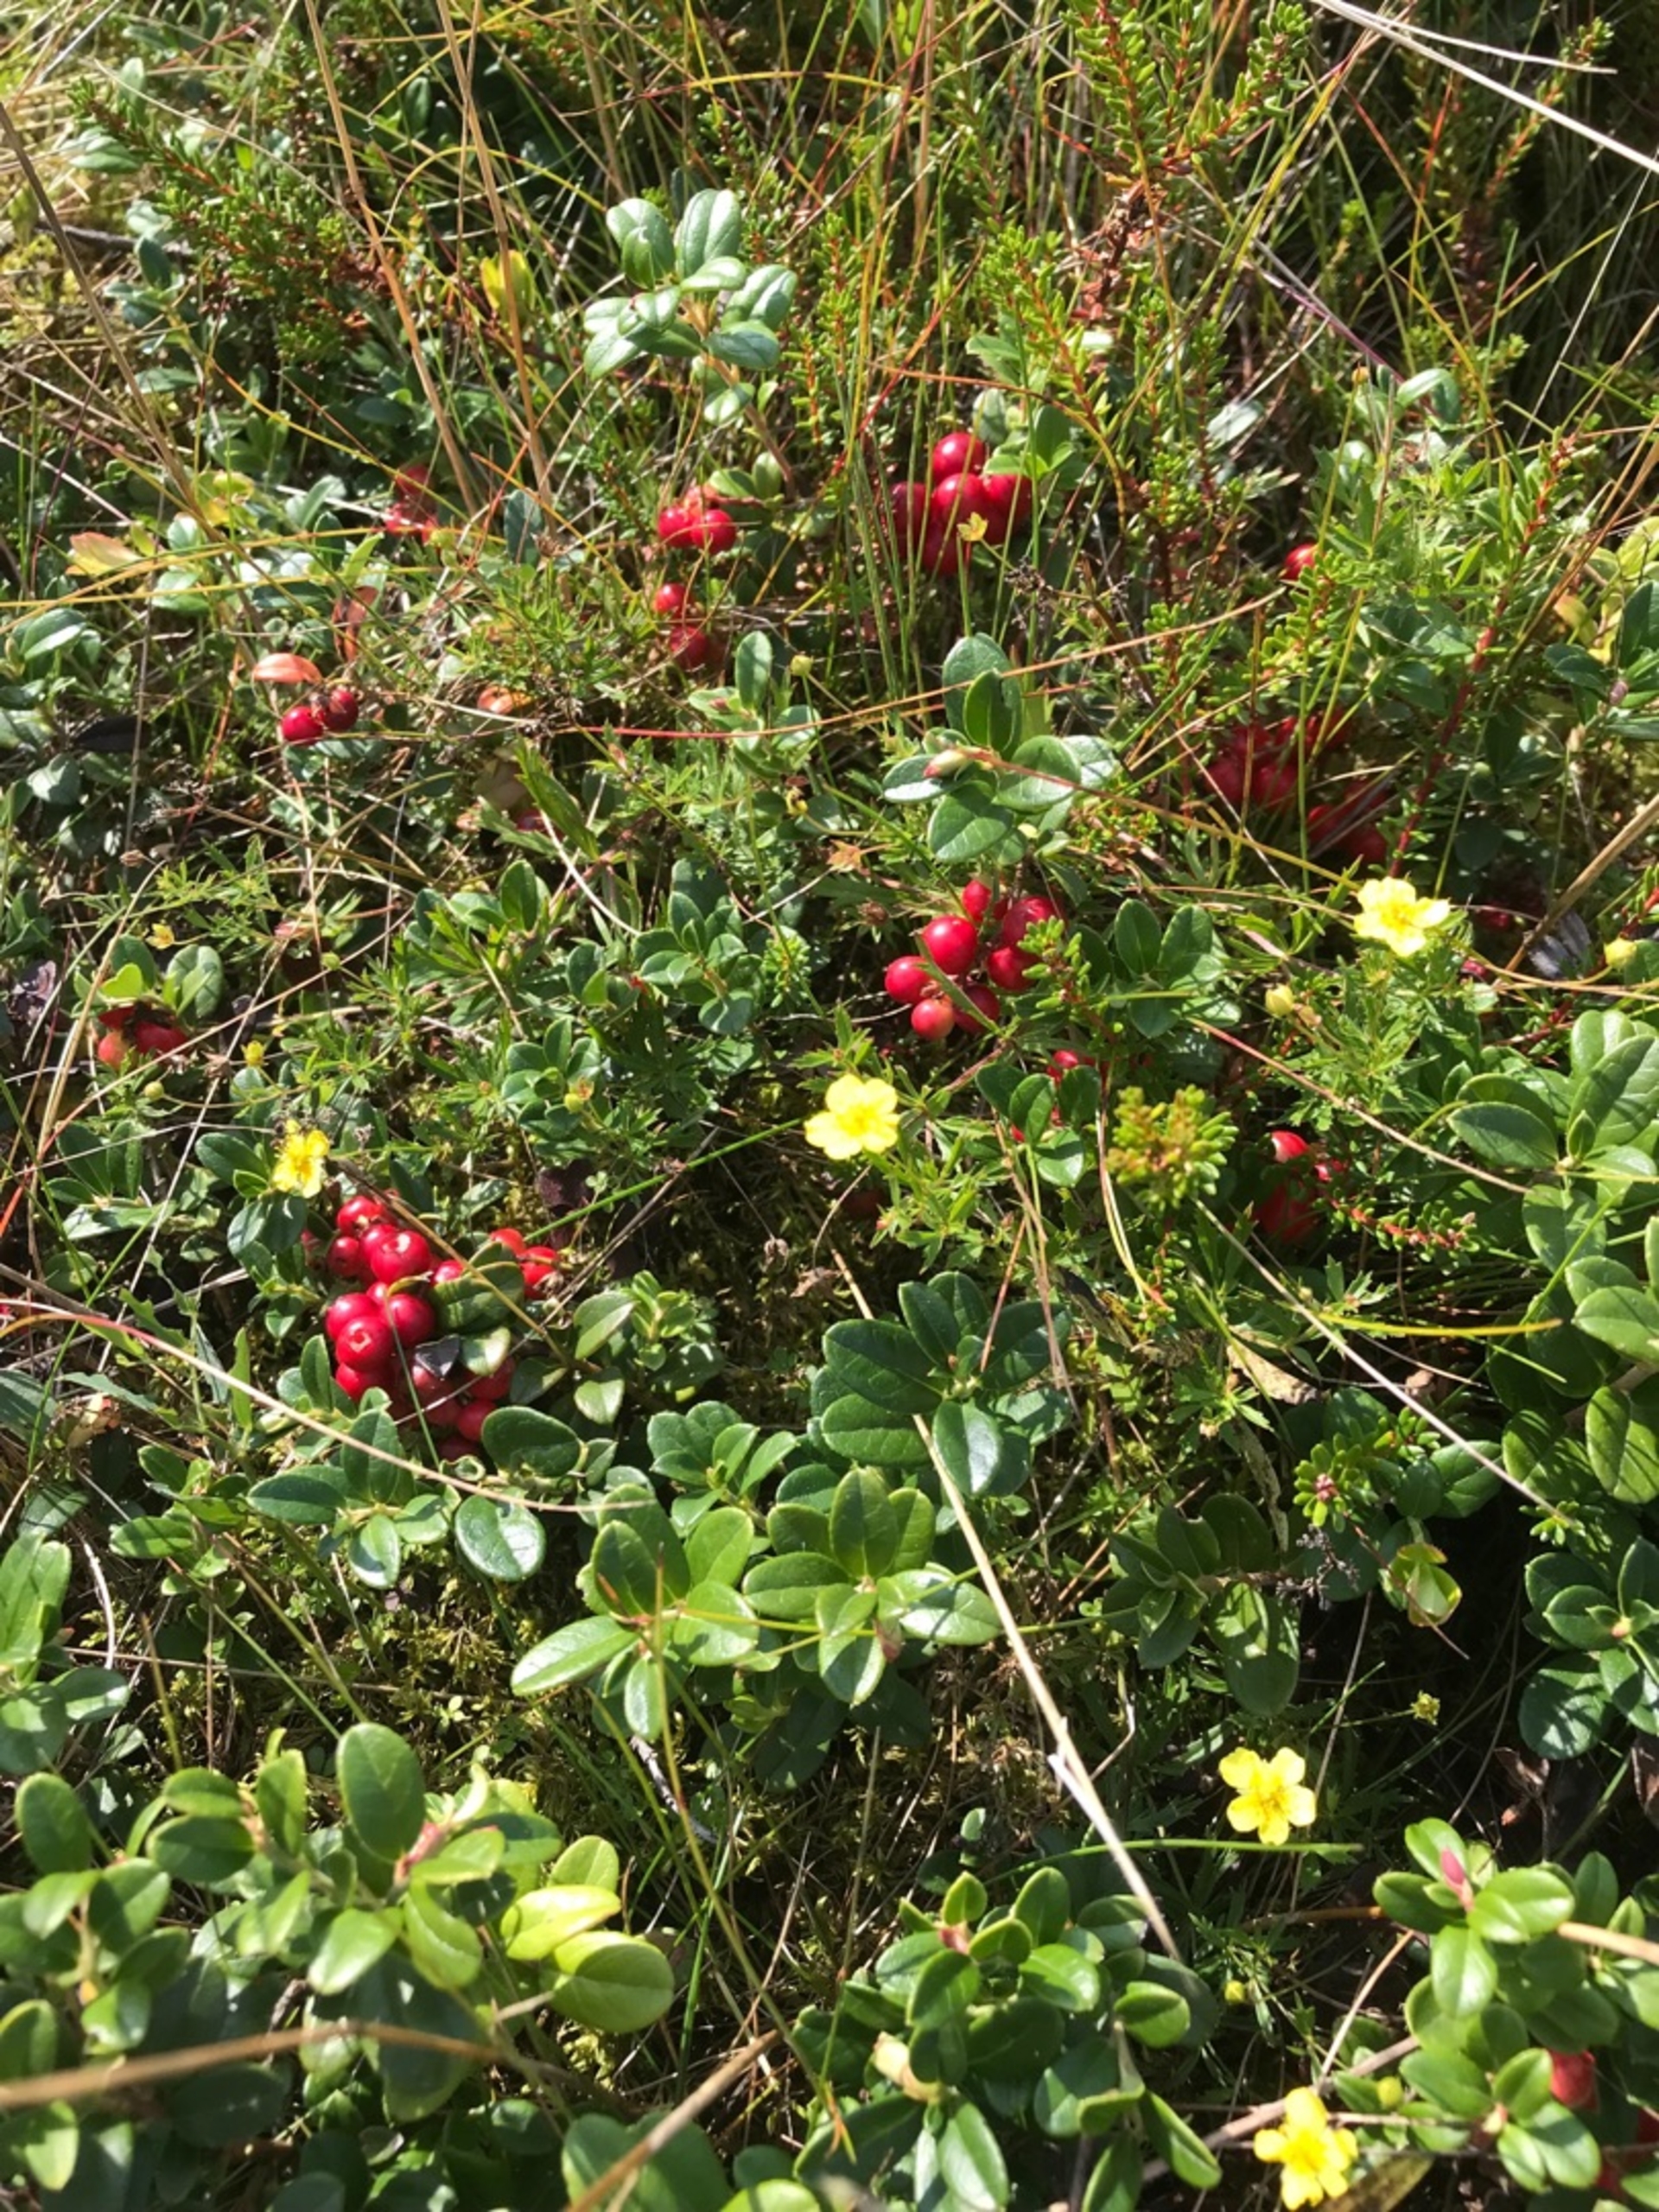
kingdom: Plantae
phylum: Tracheophyta
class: Magnoliopsida
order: Ericales
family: Ericaceae
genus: Vaccinium
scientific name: Vaccinium vitis-idaea
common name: Tyttebær
